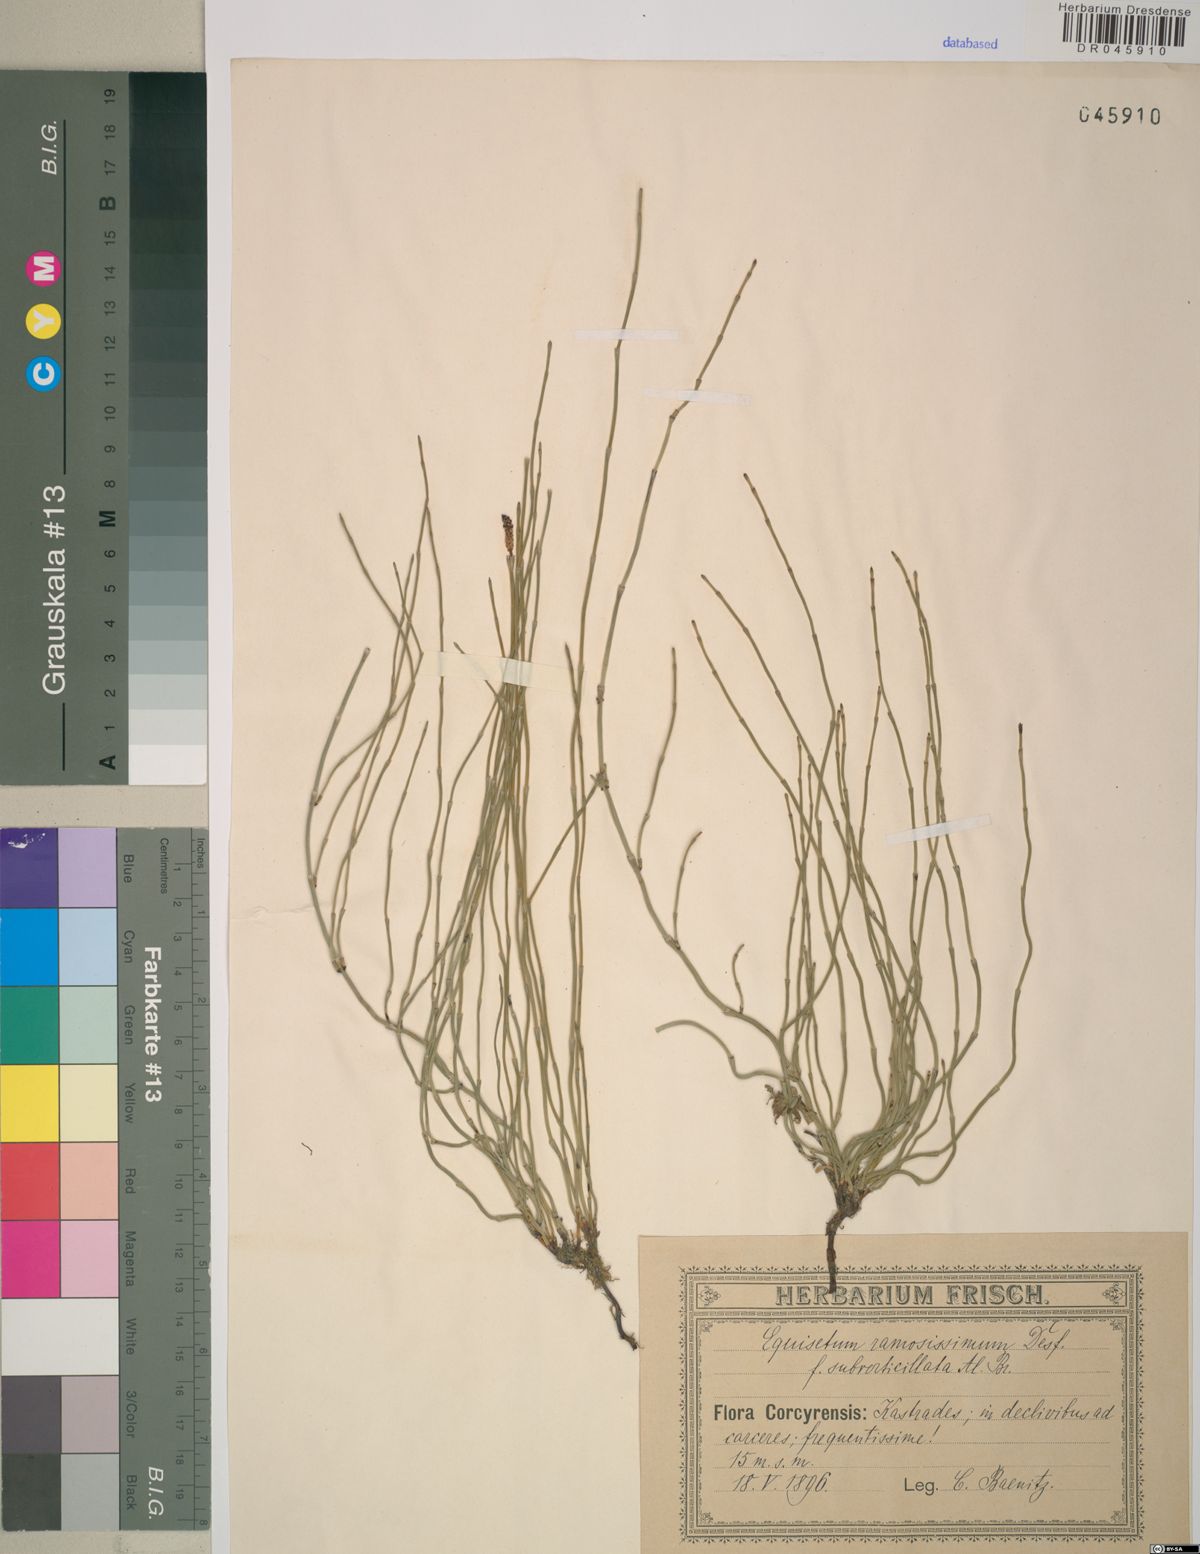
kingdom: Plantae
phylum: Tracheophyta
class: Polypodiopsida
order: Equisetales
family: Equisetaceae
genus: Equisetum
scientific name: Equisetum ramosissimum
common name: Branched horsetail
